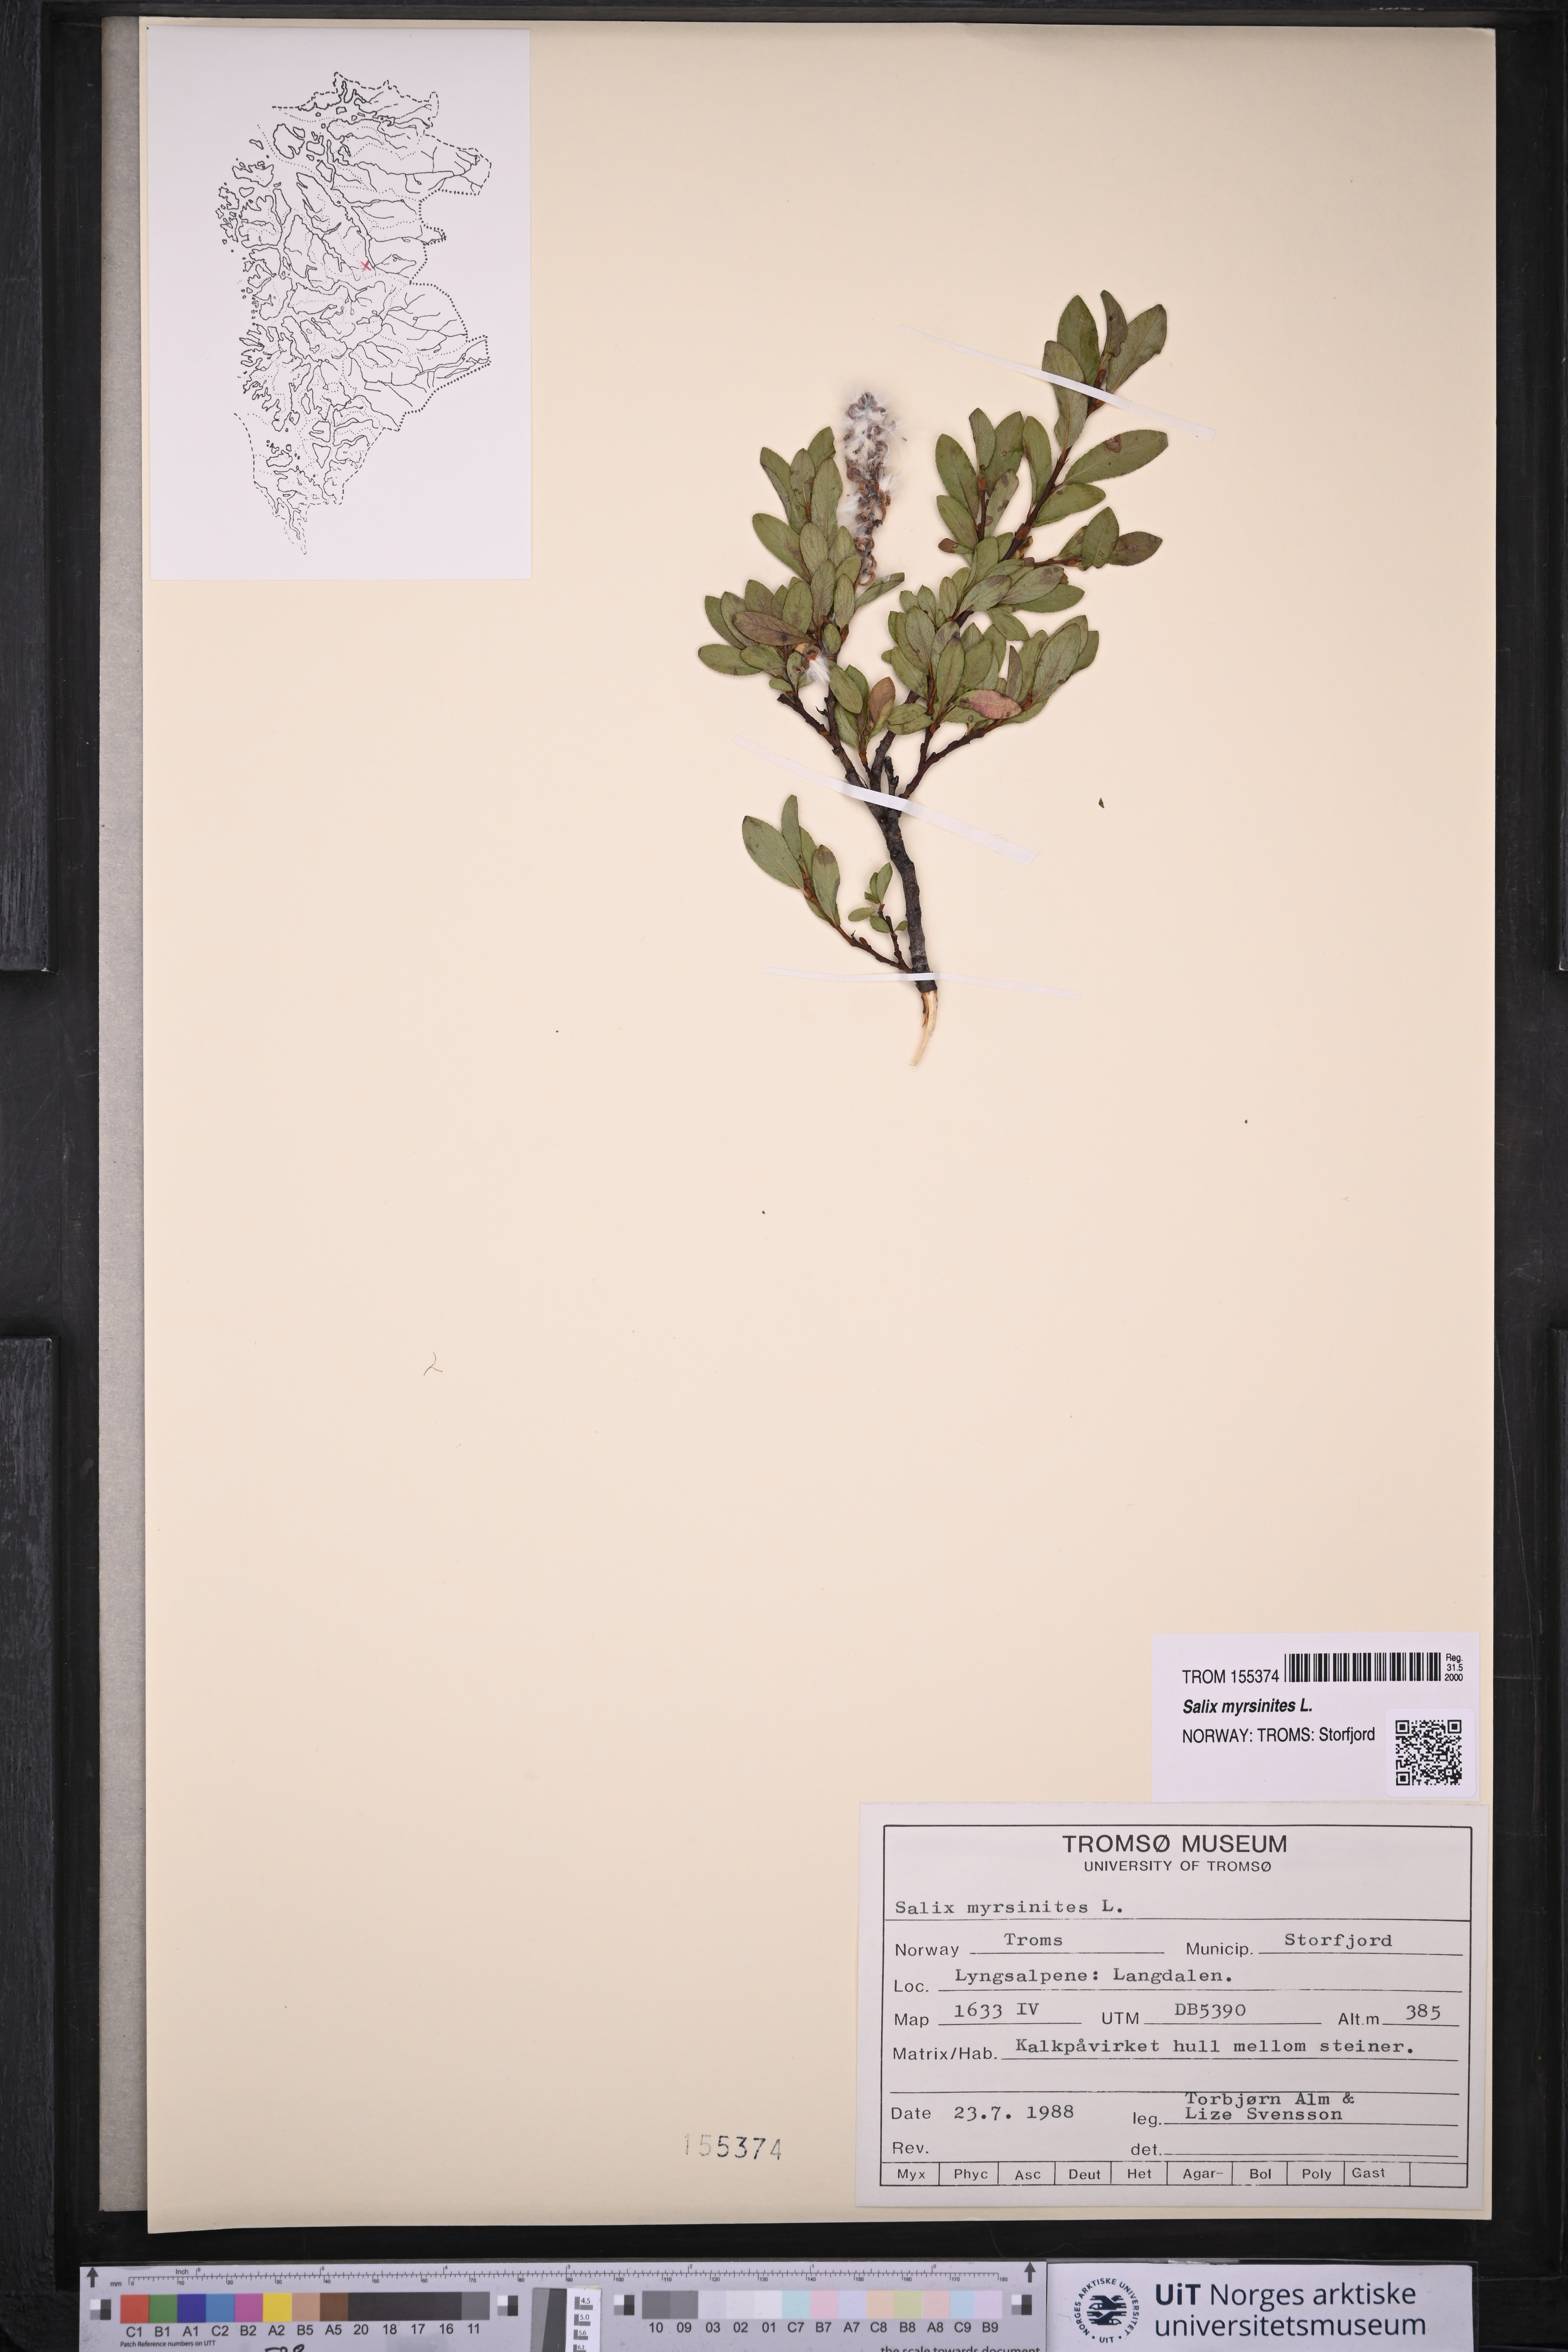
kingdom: Plantae
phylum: Tracheophyta
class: Magnoliopsida
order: Malpighiales
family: Salicaceae
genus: Salix
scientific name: Salix myrsinites
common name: Myrtle willow
